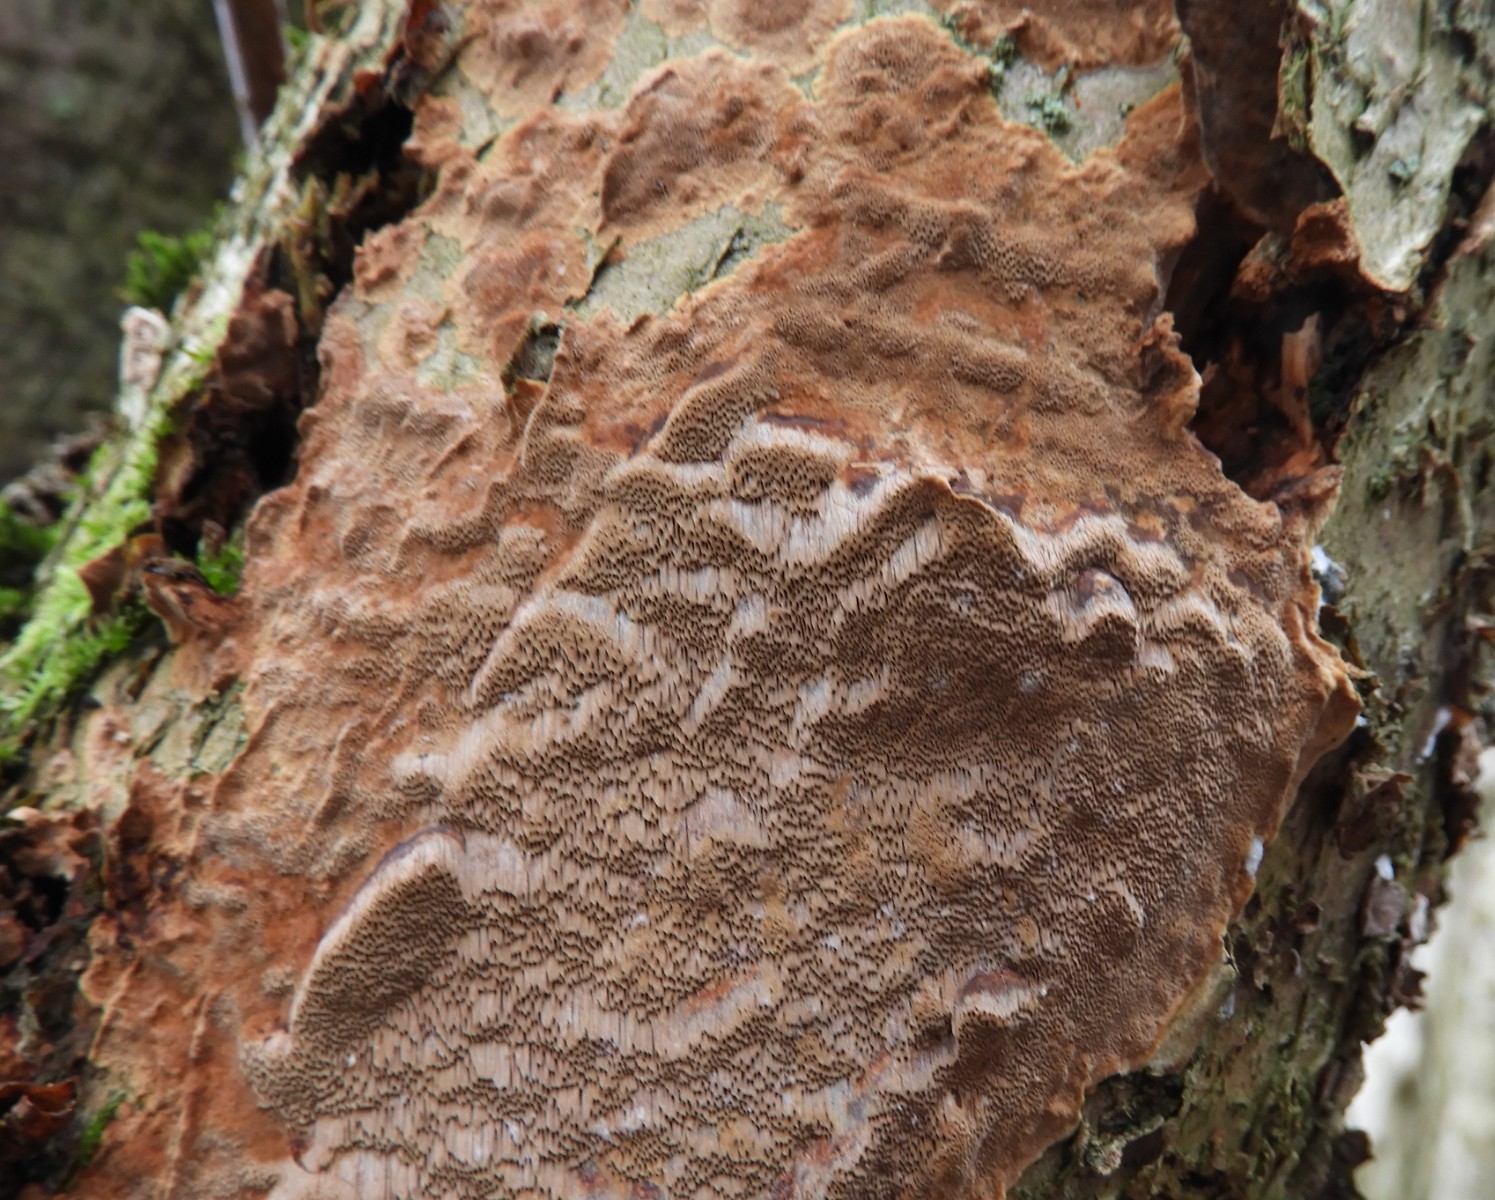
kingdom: Fungi
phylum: Basidiomycota
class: Agaricomycetes
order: Hymenochaetales
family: Hymenochaetaceae
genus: Fuscoporia
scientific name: Fuscoporia ferrea
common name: skorpe-ildporesvamp
